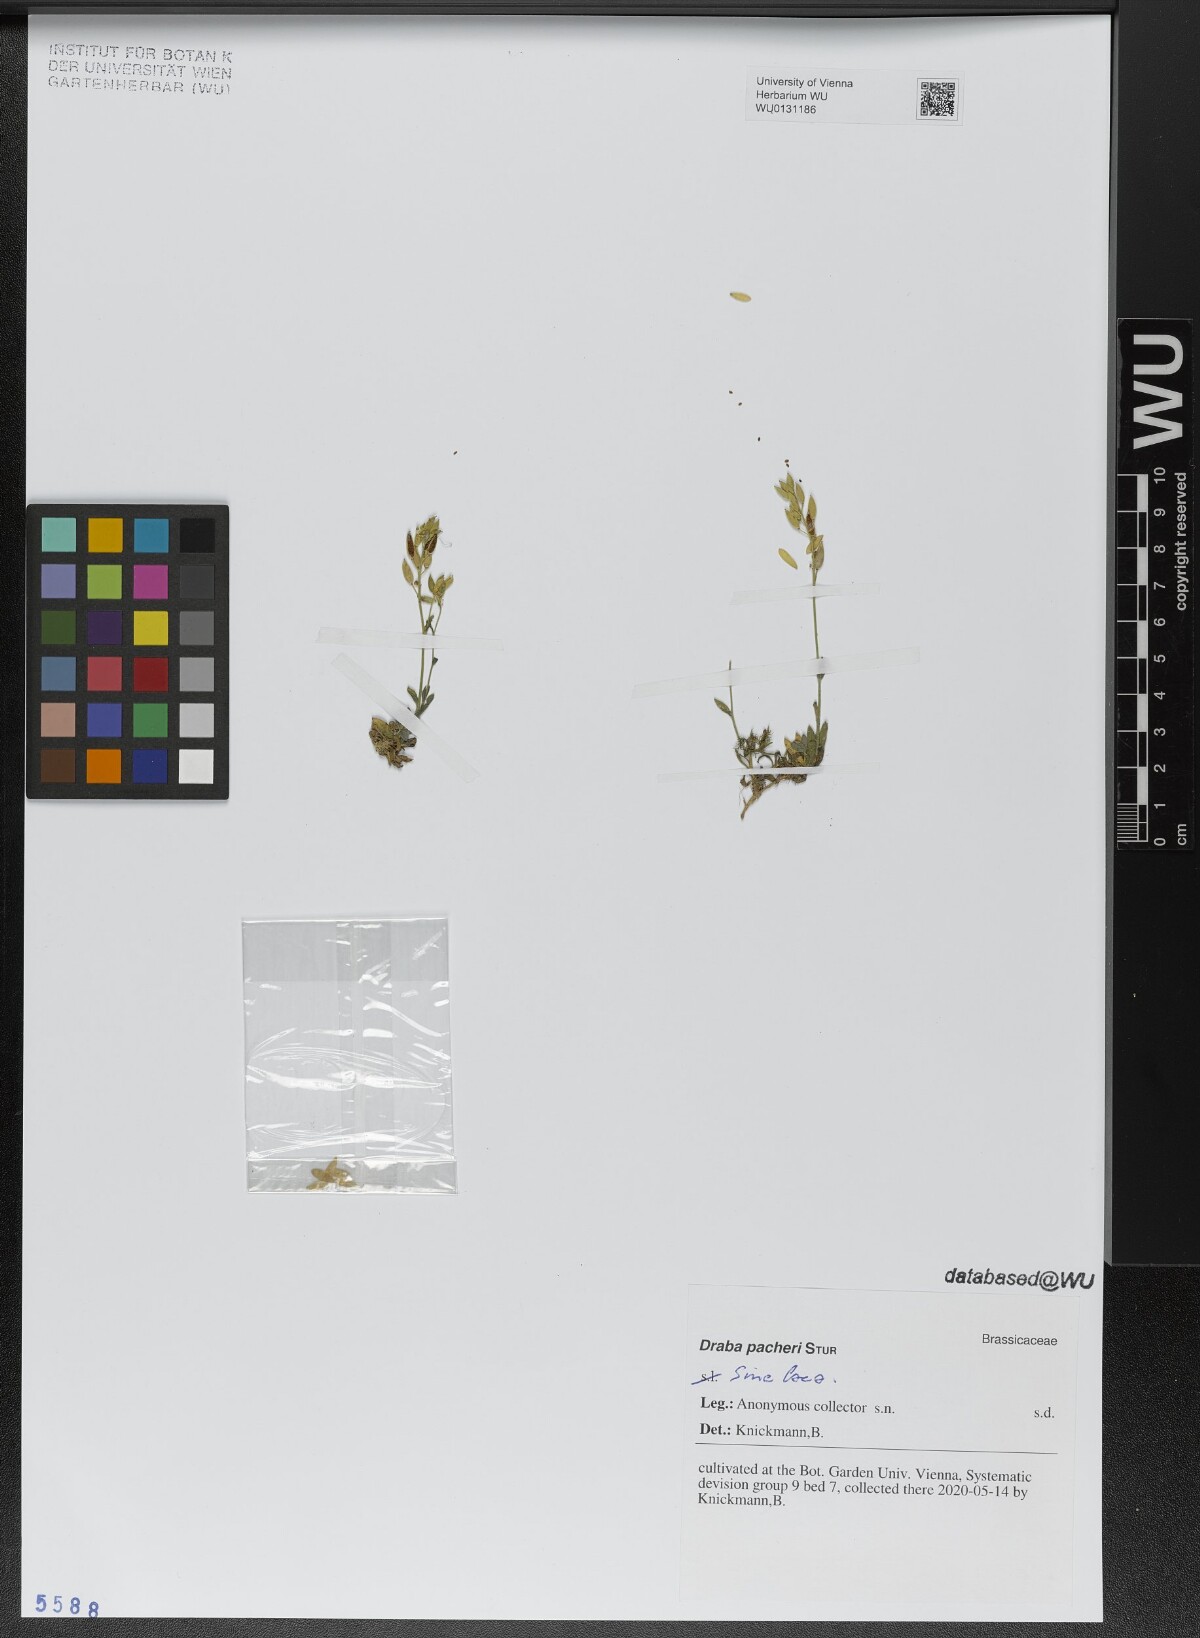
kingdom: Plantae
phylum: Tracheophyta
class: Magnoliopsida
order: Brassicales
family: Brassicaceae
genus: Draba
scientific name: Draba pacheri
